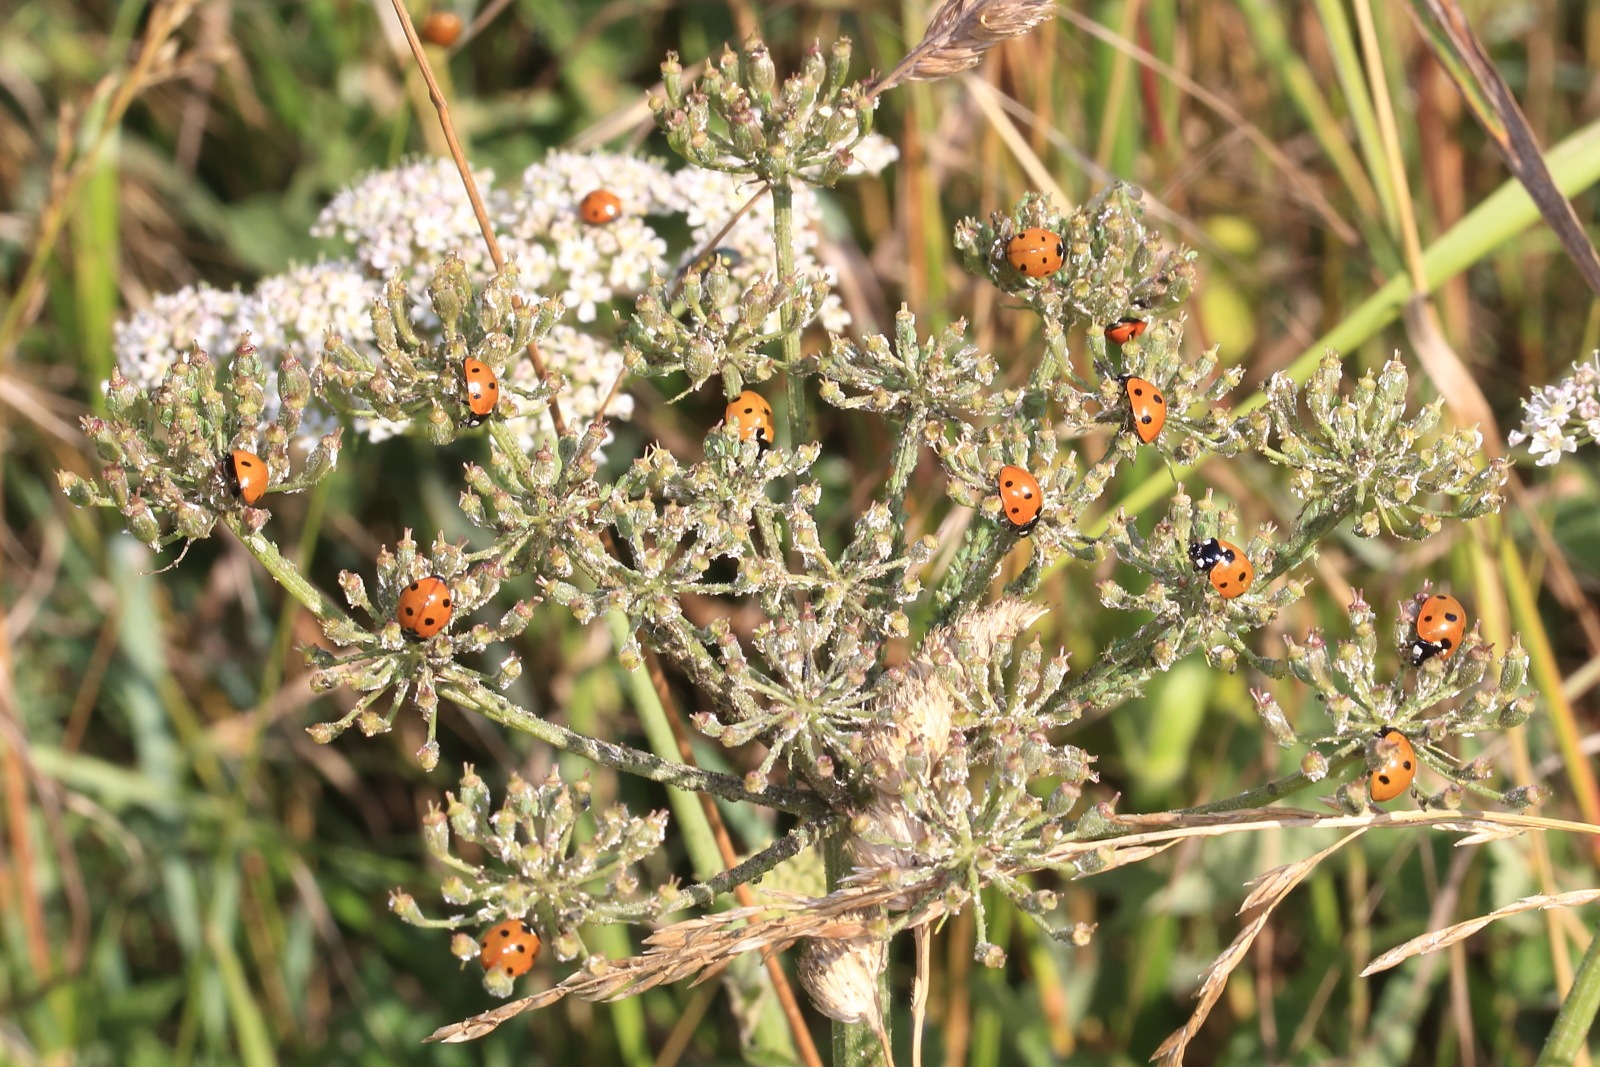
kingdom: Animalia
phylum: Arthropoda
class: Insecta
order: Coleoptera
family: Coccinellidae
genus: Coccinella
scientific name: Coccinella septempunctata
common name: Syvplettet mariehøne
